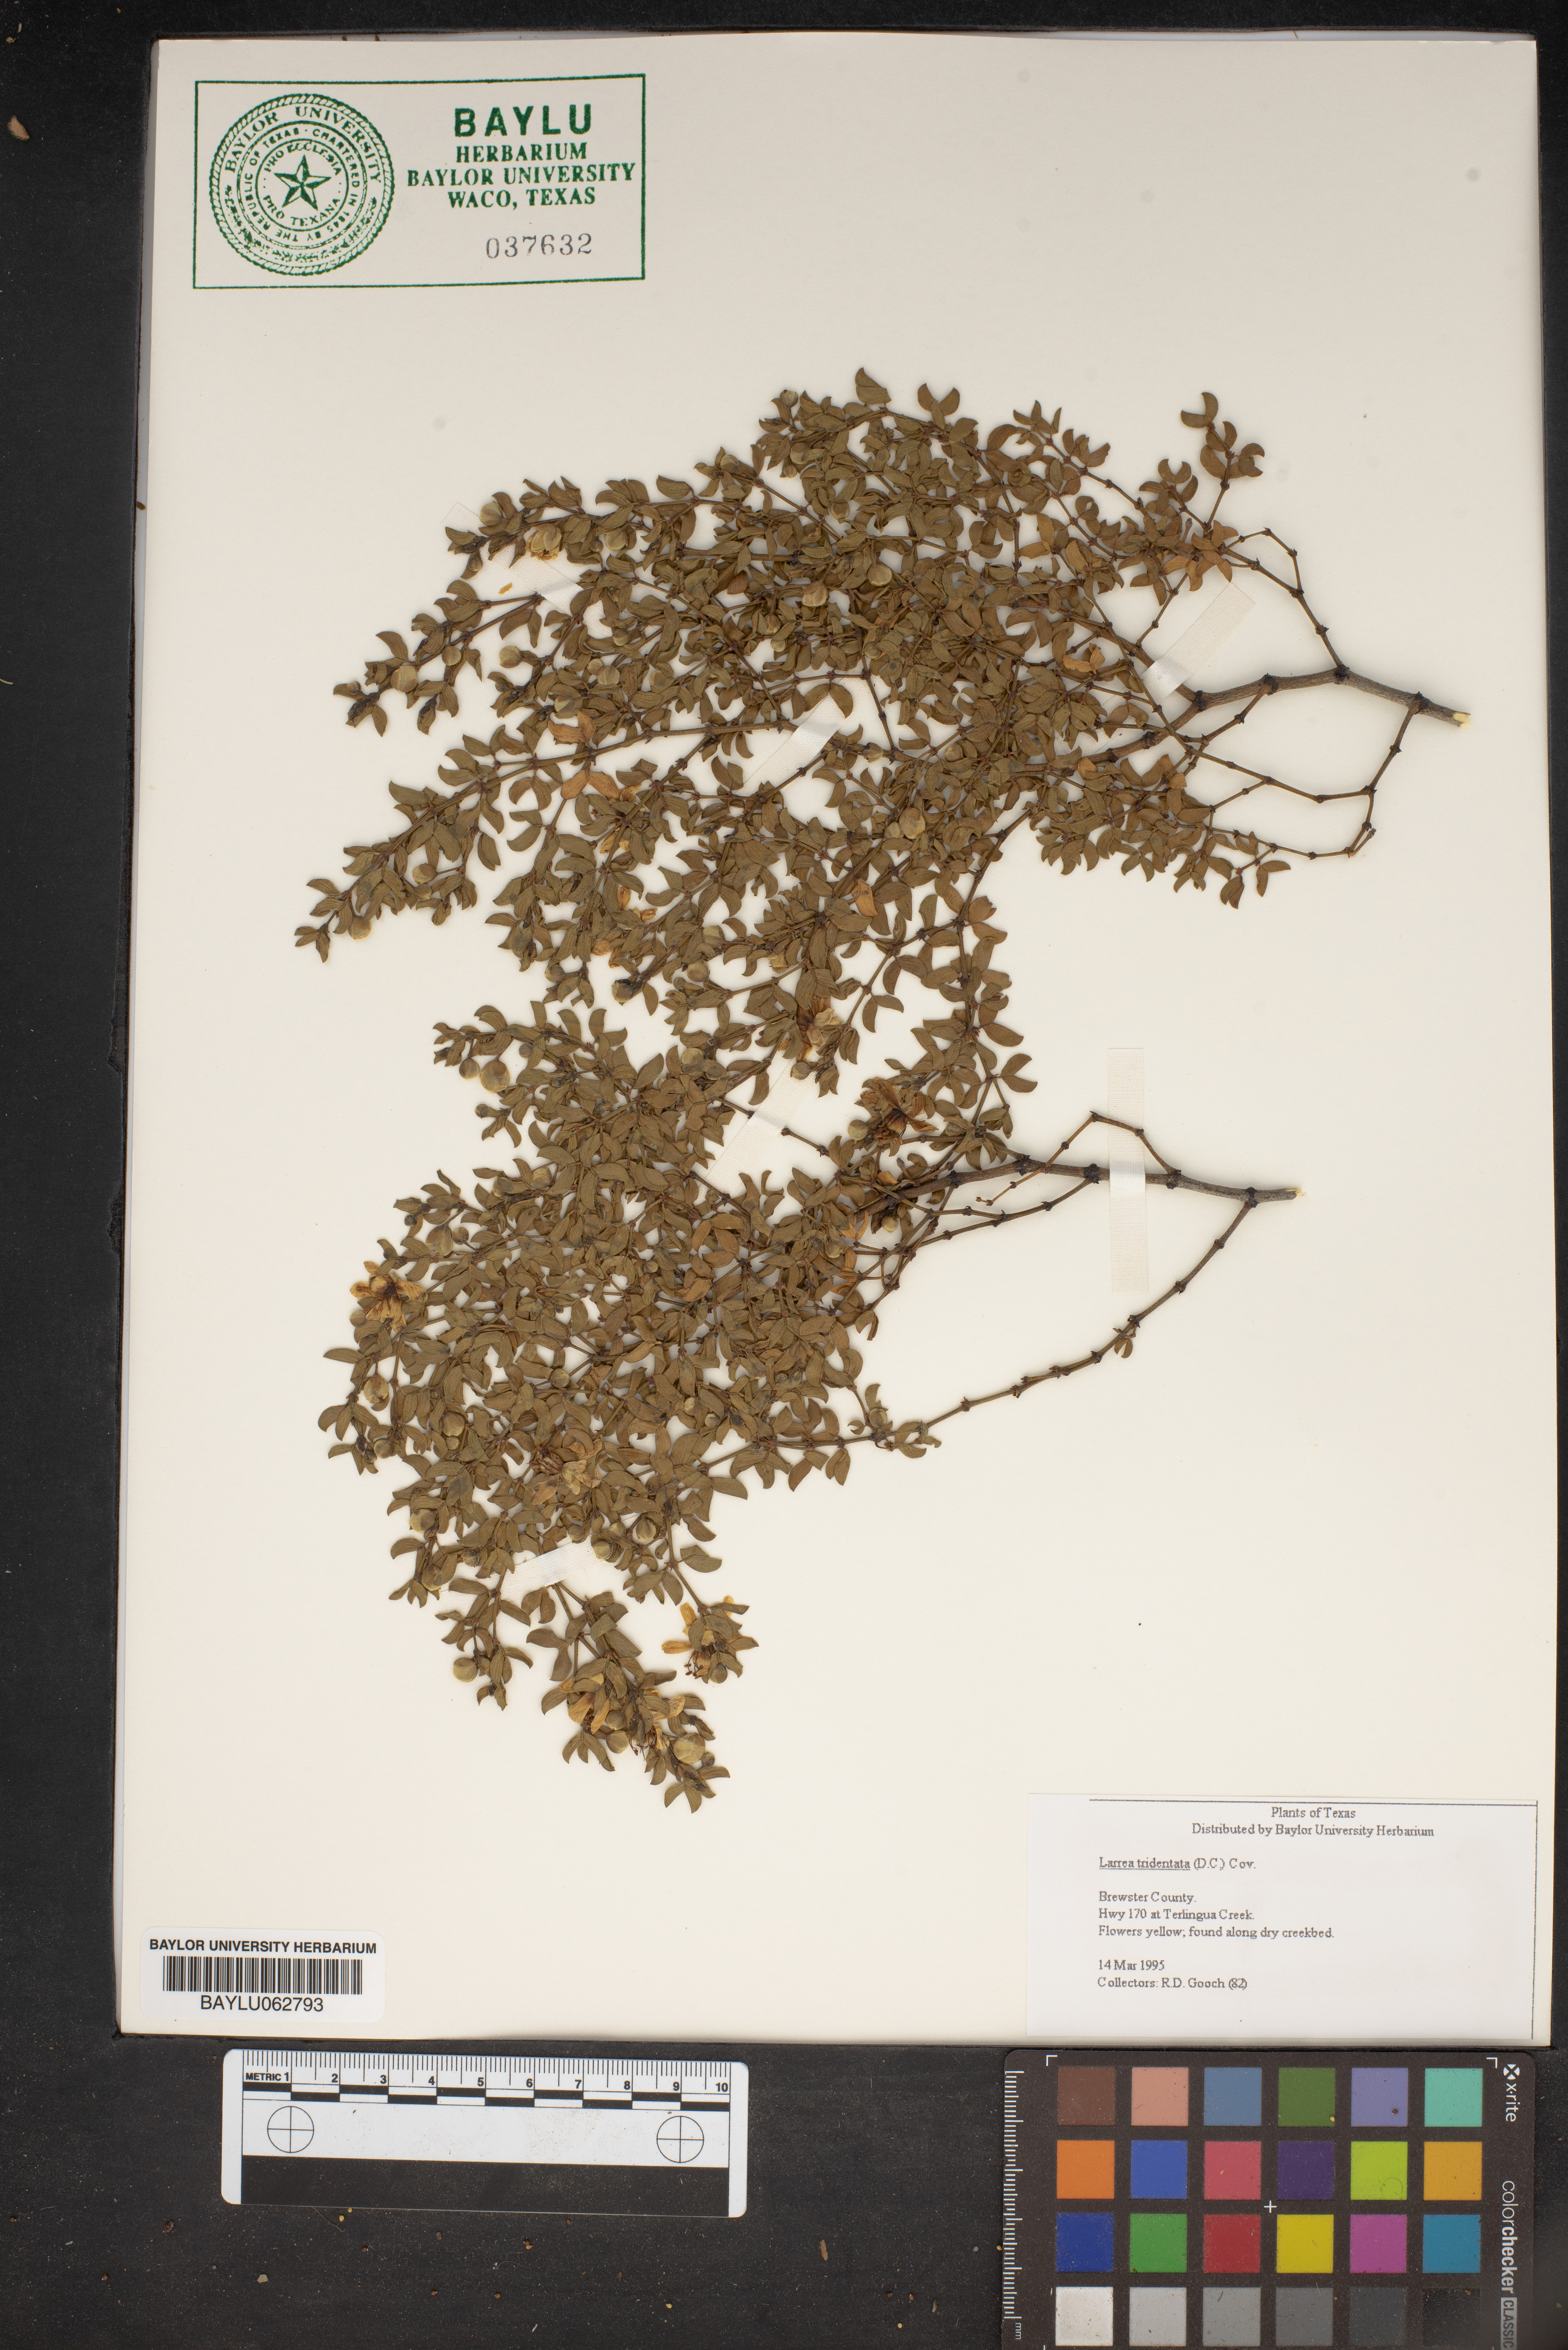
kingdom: Plantae
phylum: Tracheophyta
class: Magnoliopsida
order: Zygophyllales
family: Zygophyllaceae
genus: Larrea
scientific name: Larrea tridentata
